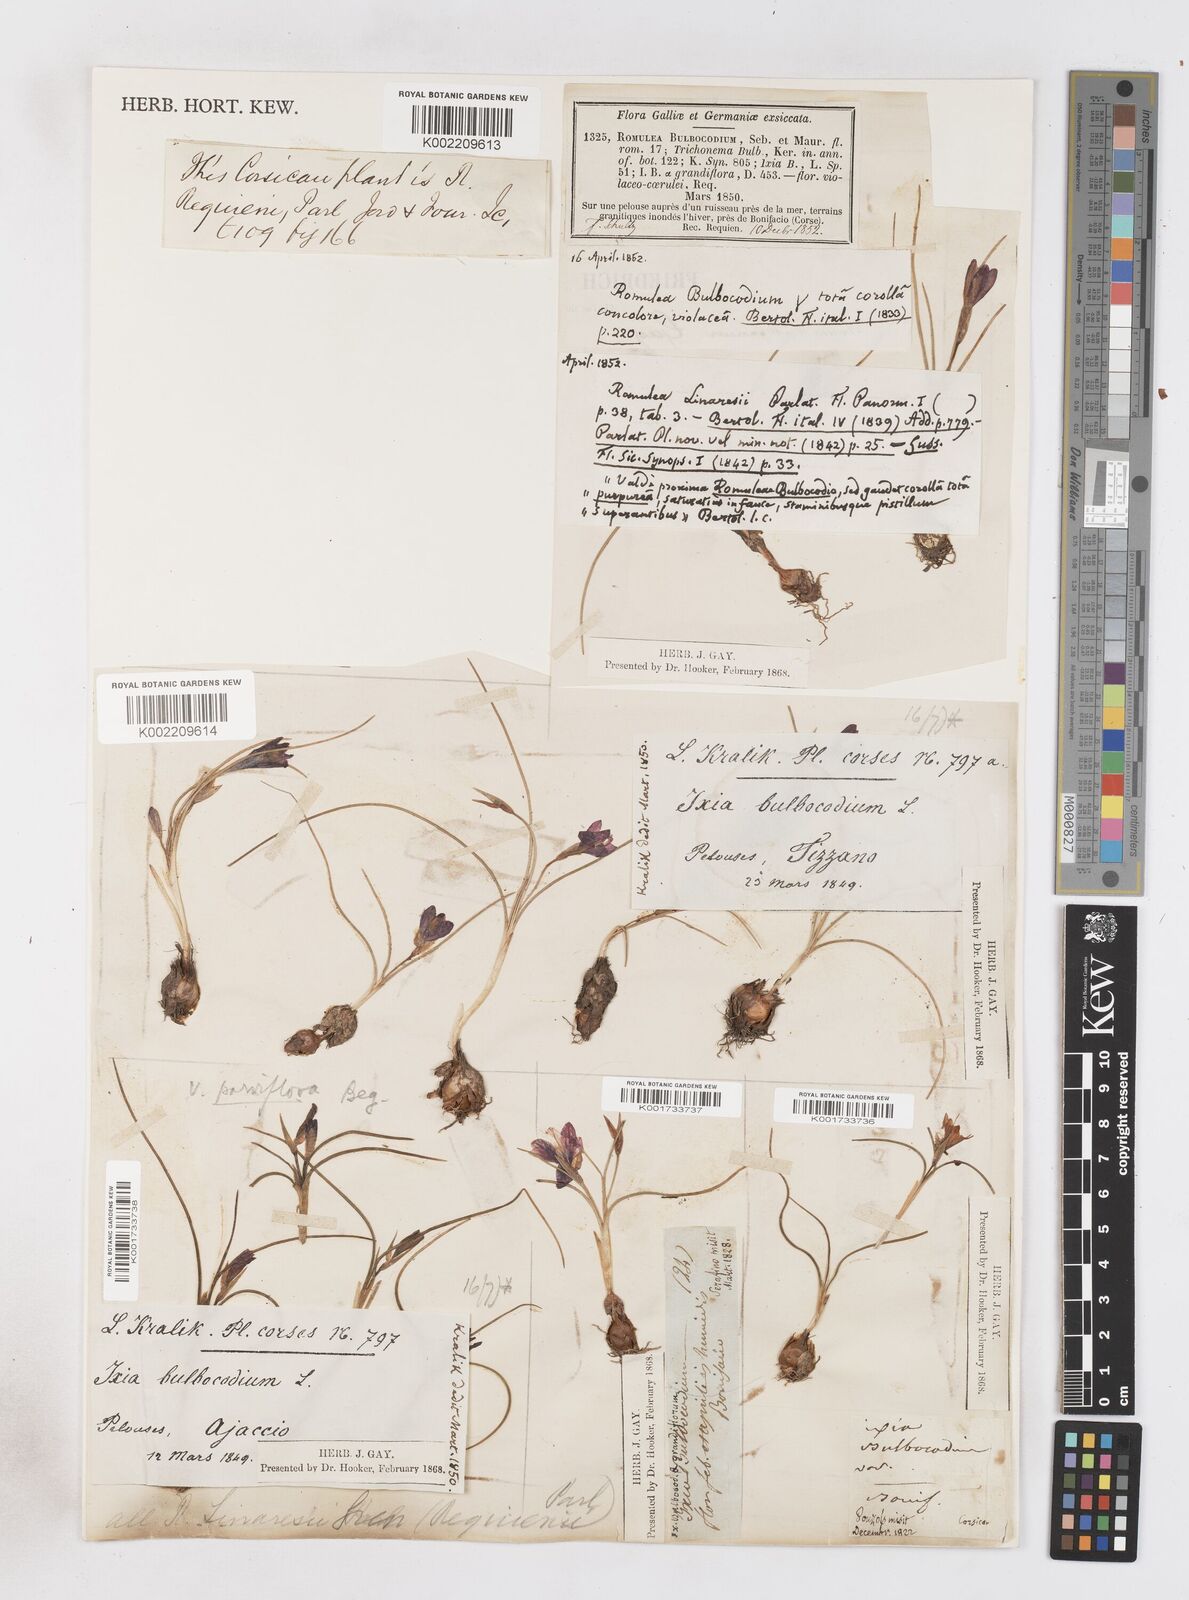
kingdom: Plantae
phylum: Tracheophyta
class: Liliopsida
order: Asparagales
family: Iridaceae
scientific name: Iridaceae
